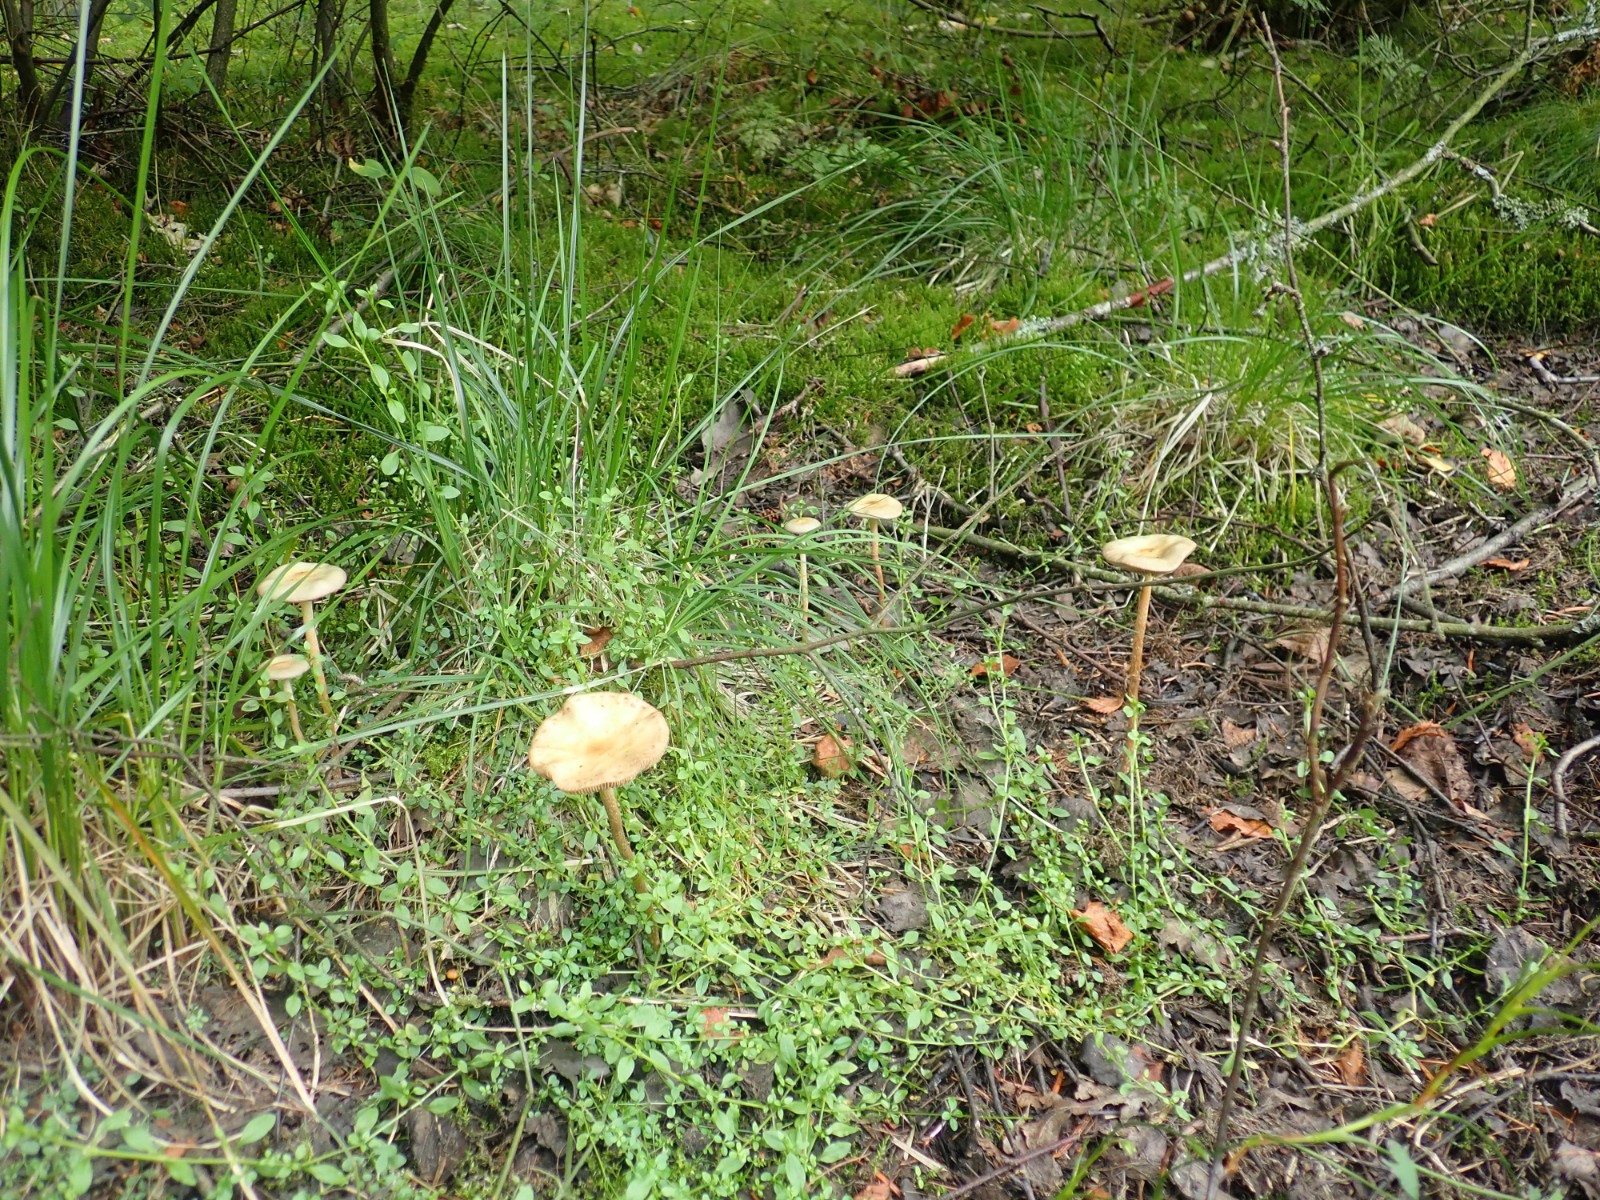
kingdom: Fungi
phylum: Basidiomycota
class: Agaricomycetes
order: Agaricales
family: Strophariaceae
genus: Hypholoma
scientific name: Hypholoma myosotis
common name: slimet svovlhat
